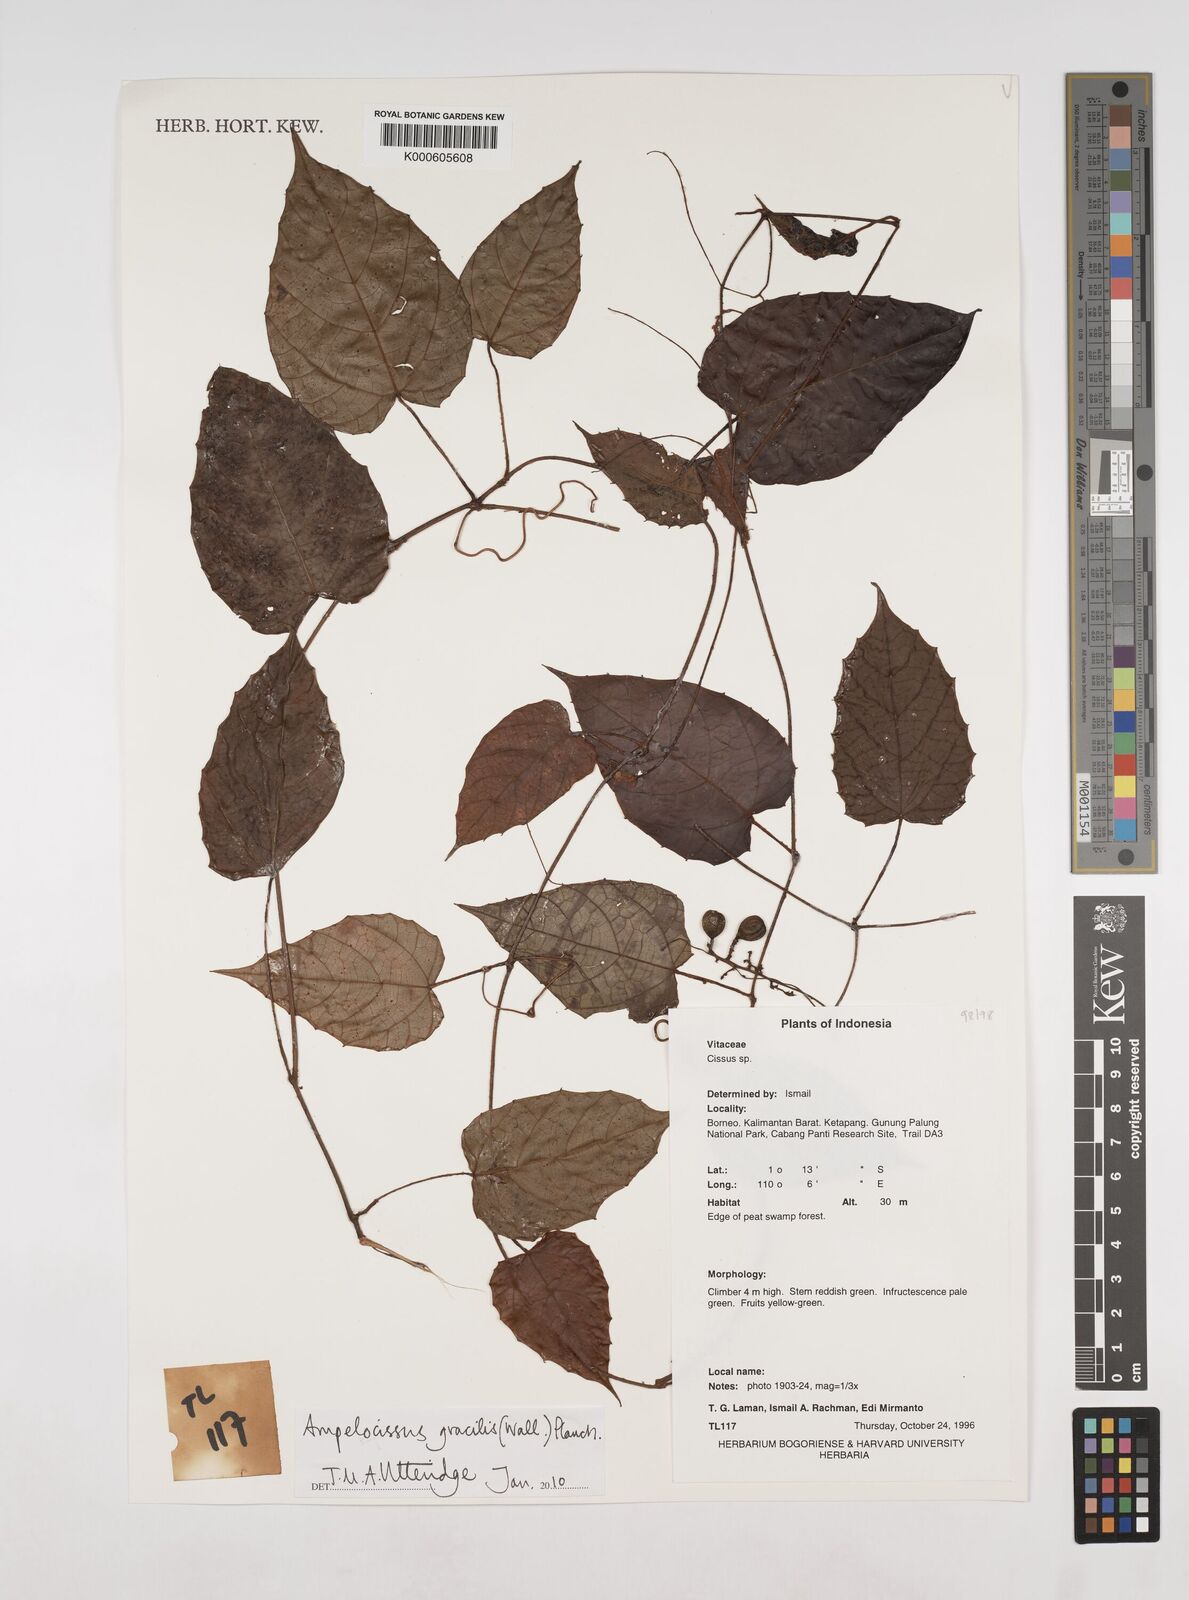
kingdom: Plantae
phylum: Tracheophyta
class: Magnoliopsida
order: Vitales
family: Vitaceae
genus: Ampelocissus
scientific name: Ampelocissus gracilis
